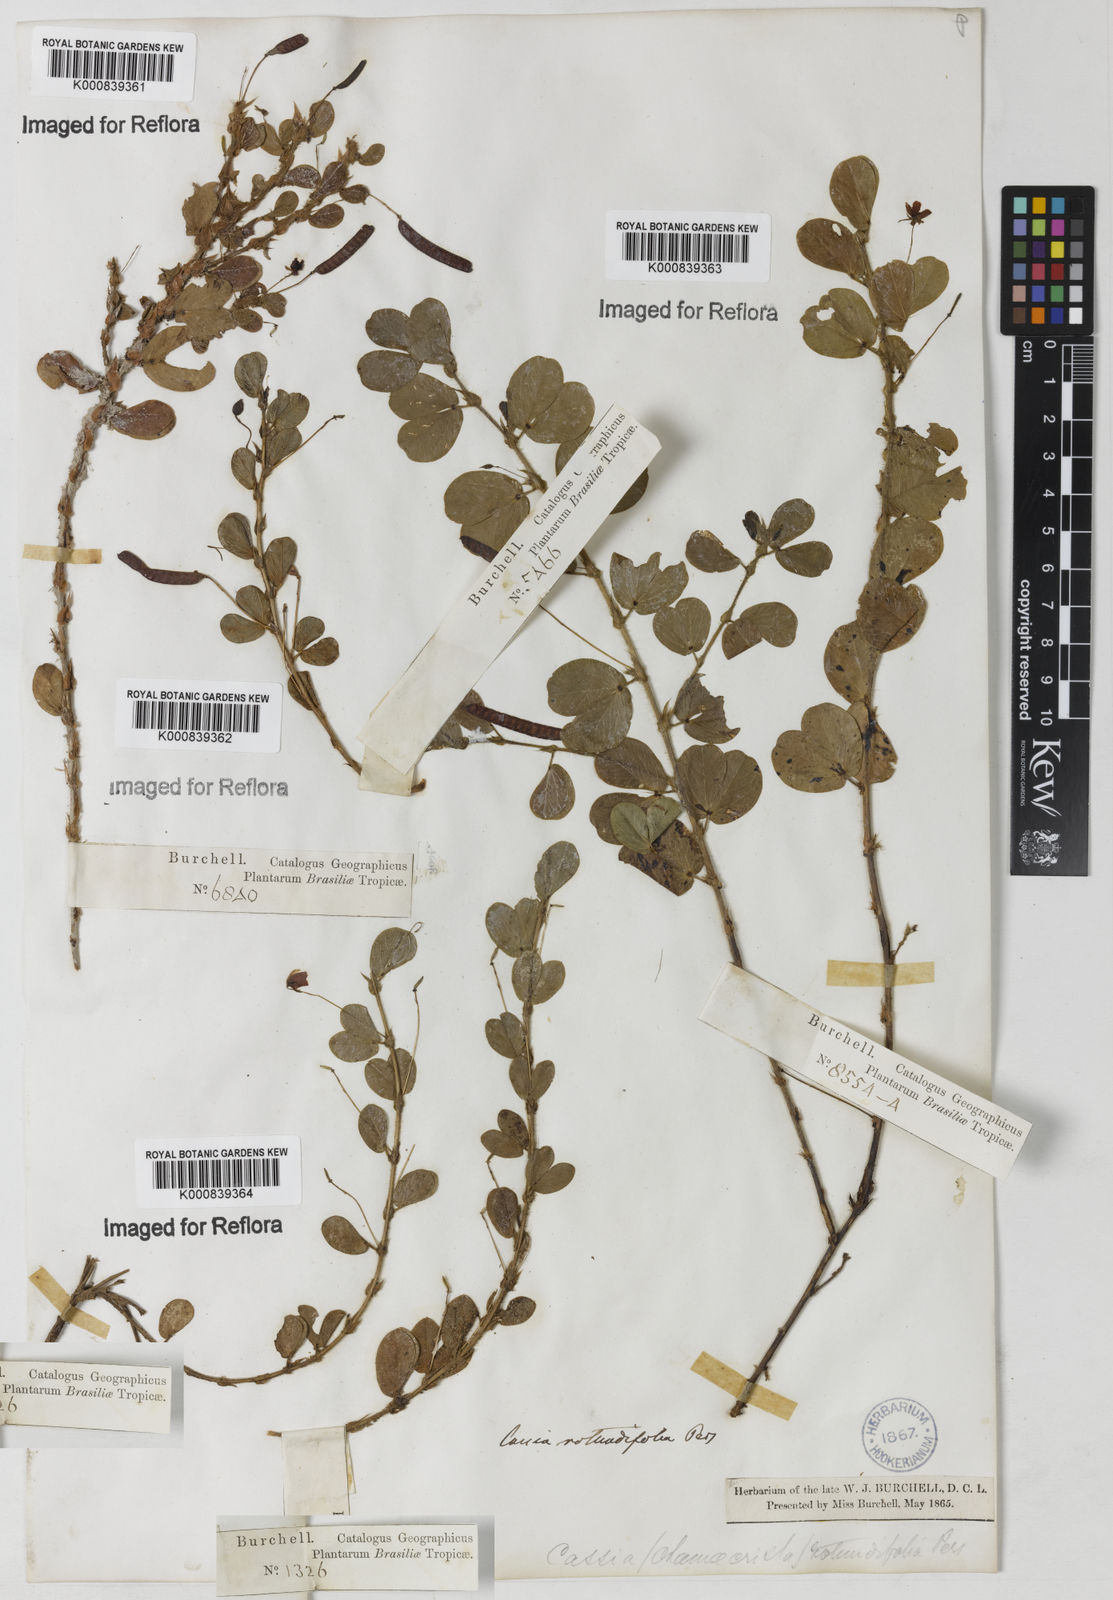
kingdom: Plantae
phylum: Tracheophyta
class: Magnoliopsida
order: Fabales
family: Fabaceae
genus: Chamaecrista
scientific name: Chamaecrista rotundifolia
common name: Round-leaf cassia
